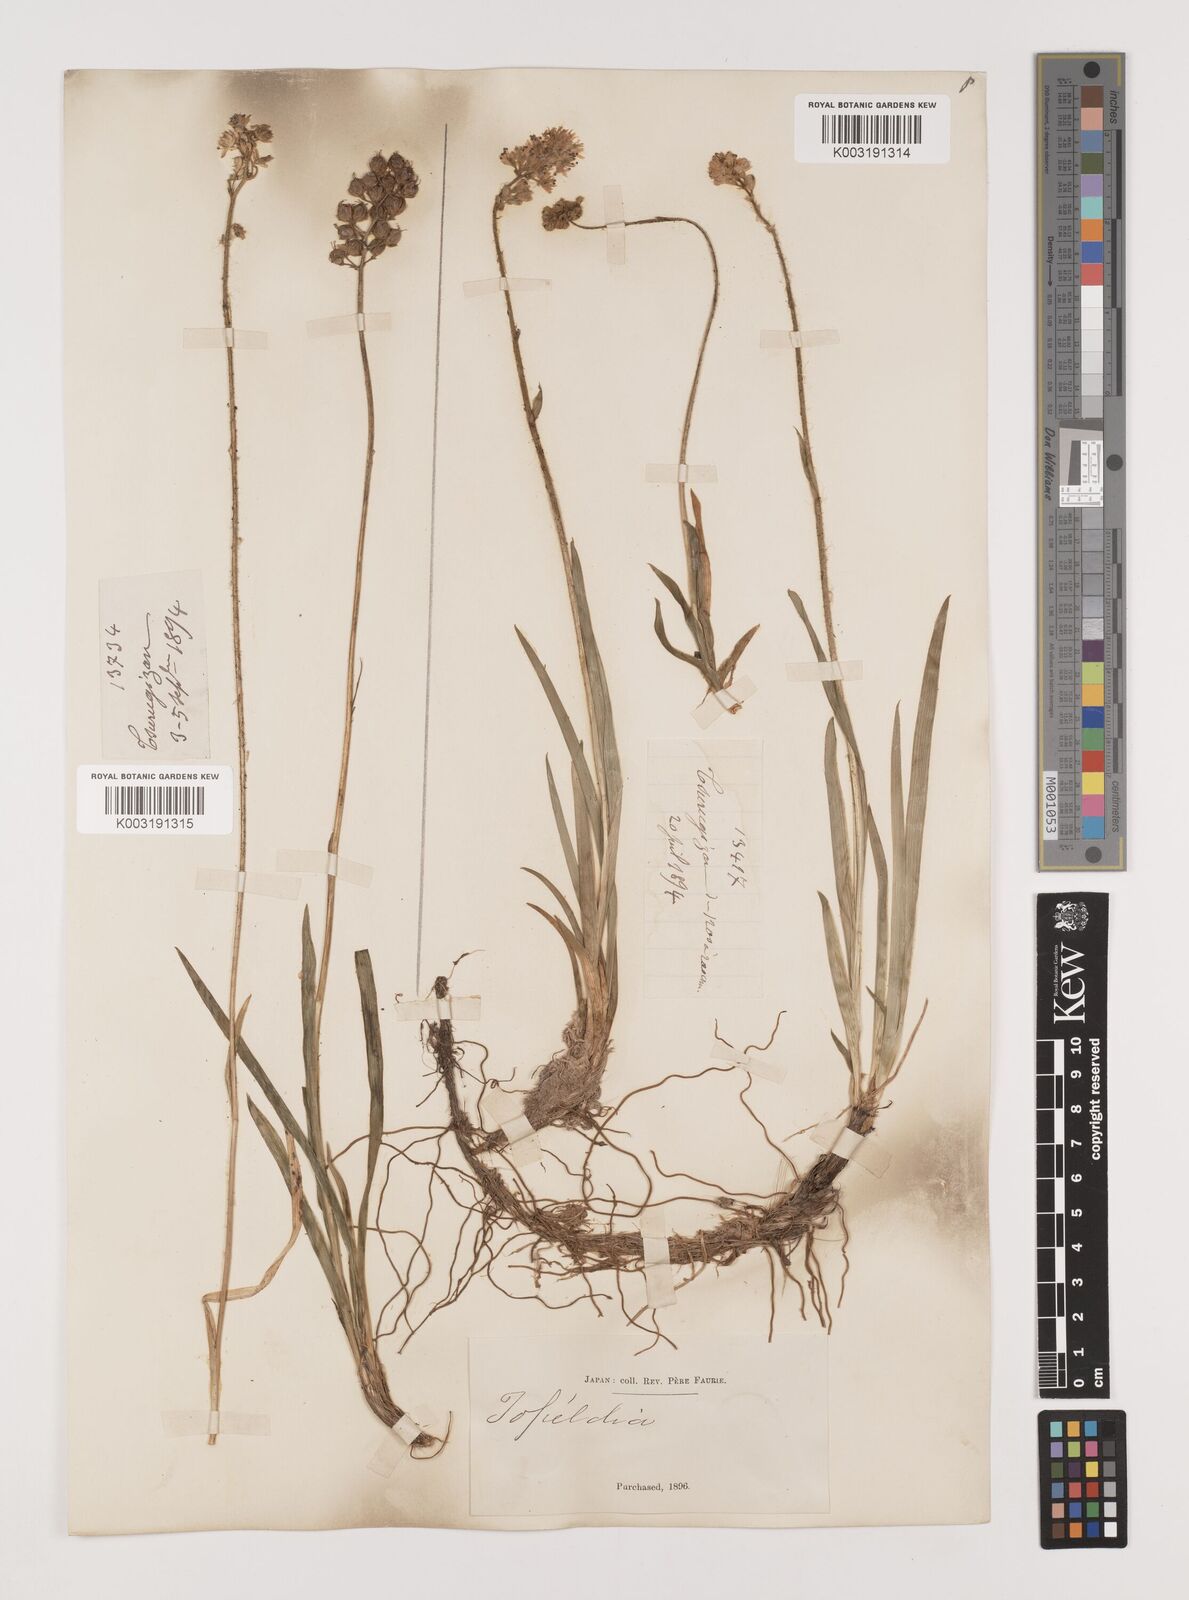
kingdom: Plantae
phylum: Tracheophyta
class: Liliopsida
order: Alismatales
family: Tofieldiaceae
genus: Triantha
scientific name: Triantha japonica
